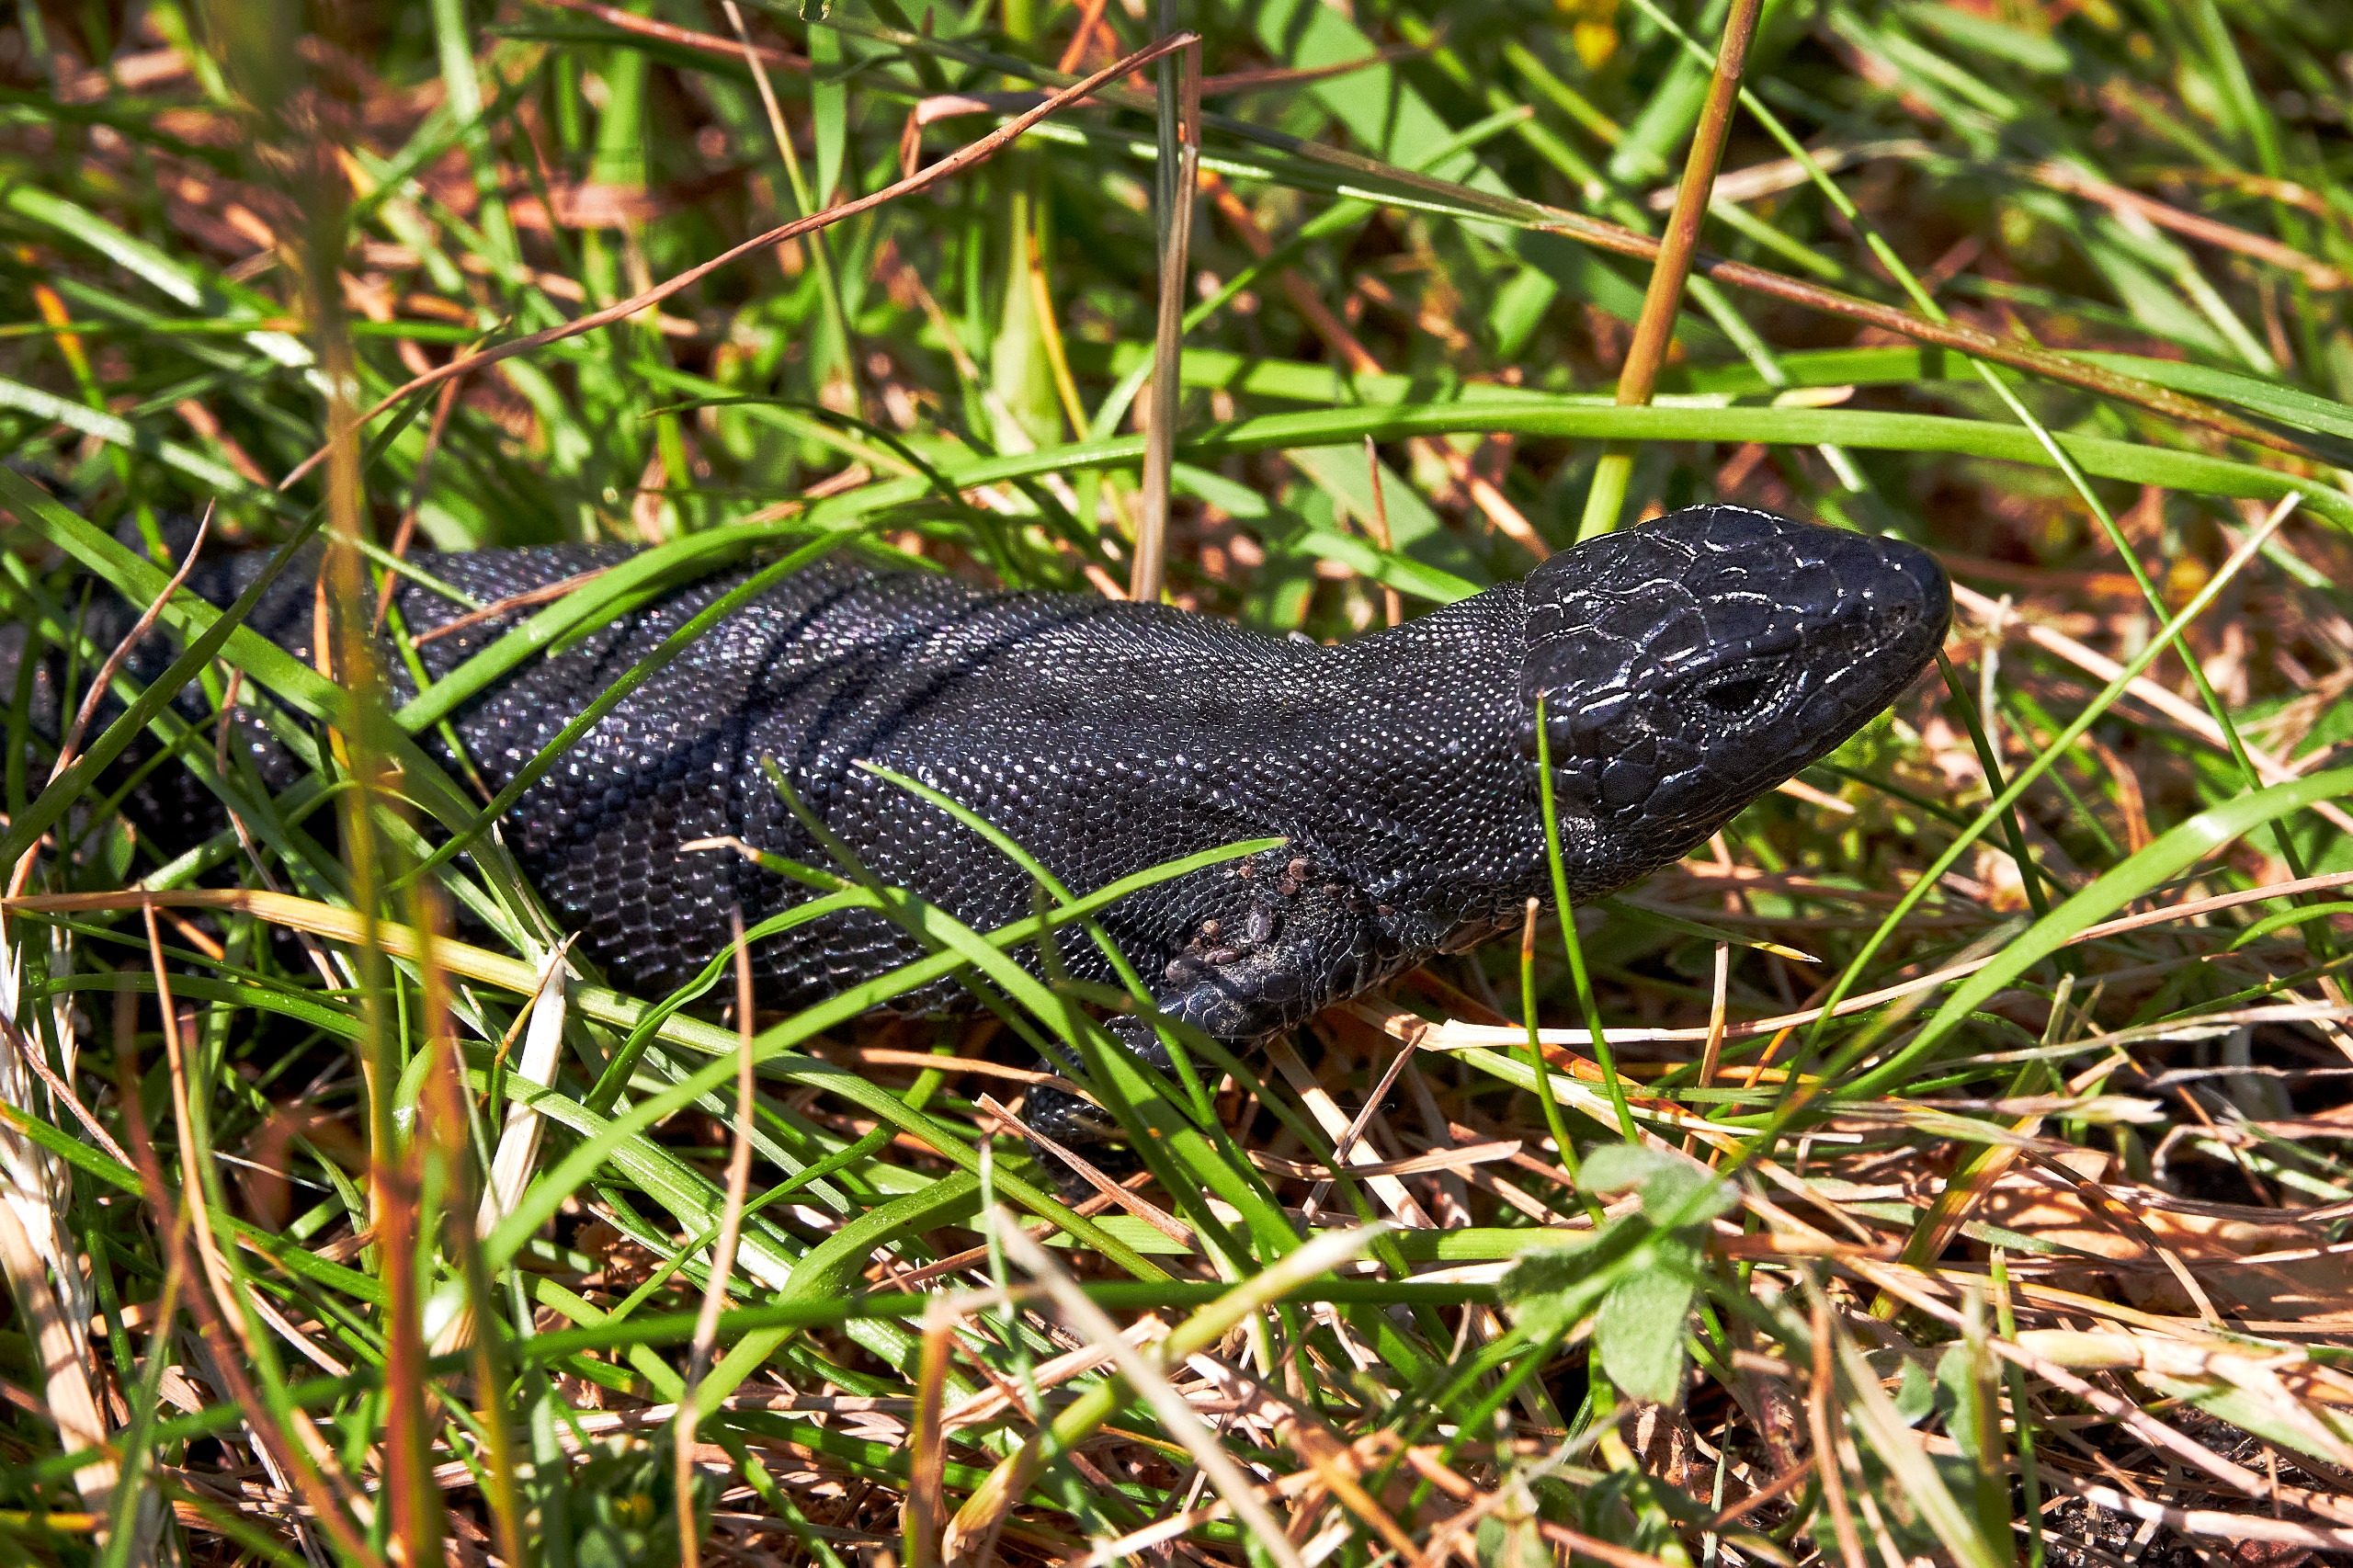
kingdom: Animalia
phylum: Chordata
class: Squamata
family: Lacertidae
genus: Lacerta
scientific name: Lacerta agilis
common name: Markfirben
